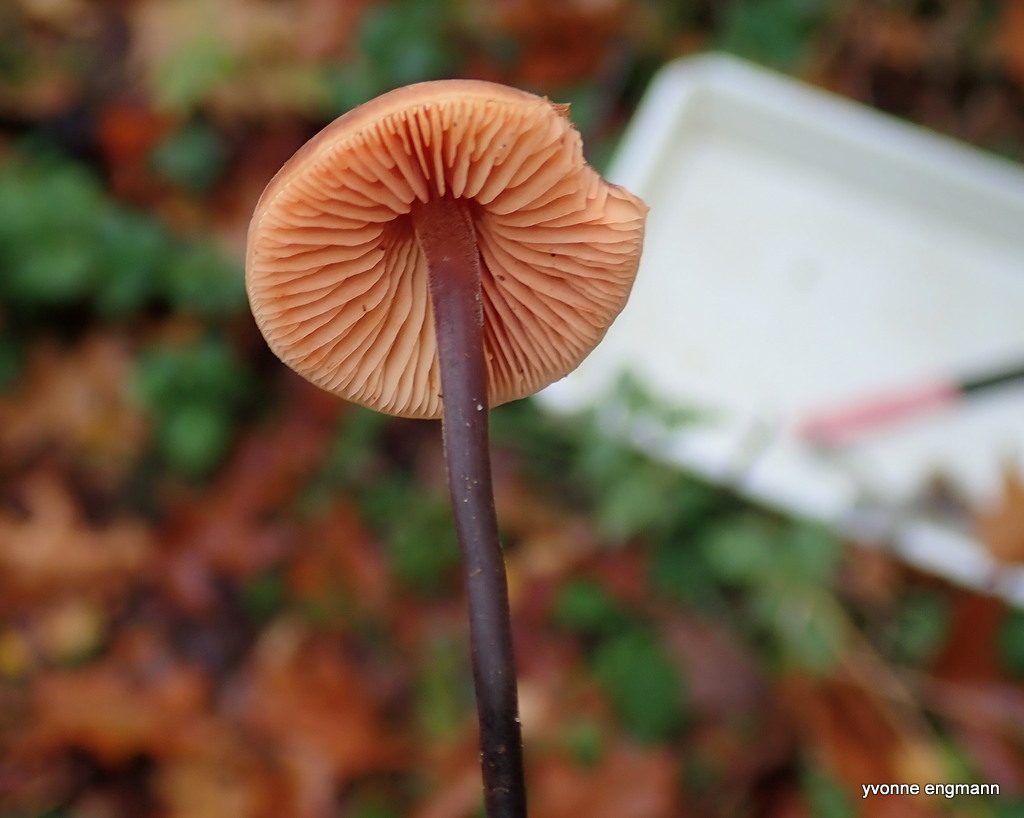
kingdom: Fungi
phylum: Basidiomycota
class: Agaricomycetes
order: Agaricales
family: Macrocystidiaceae
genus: Macrocystidia
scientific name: Macrocystidia cucumis
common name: agurkehat
